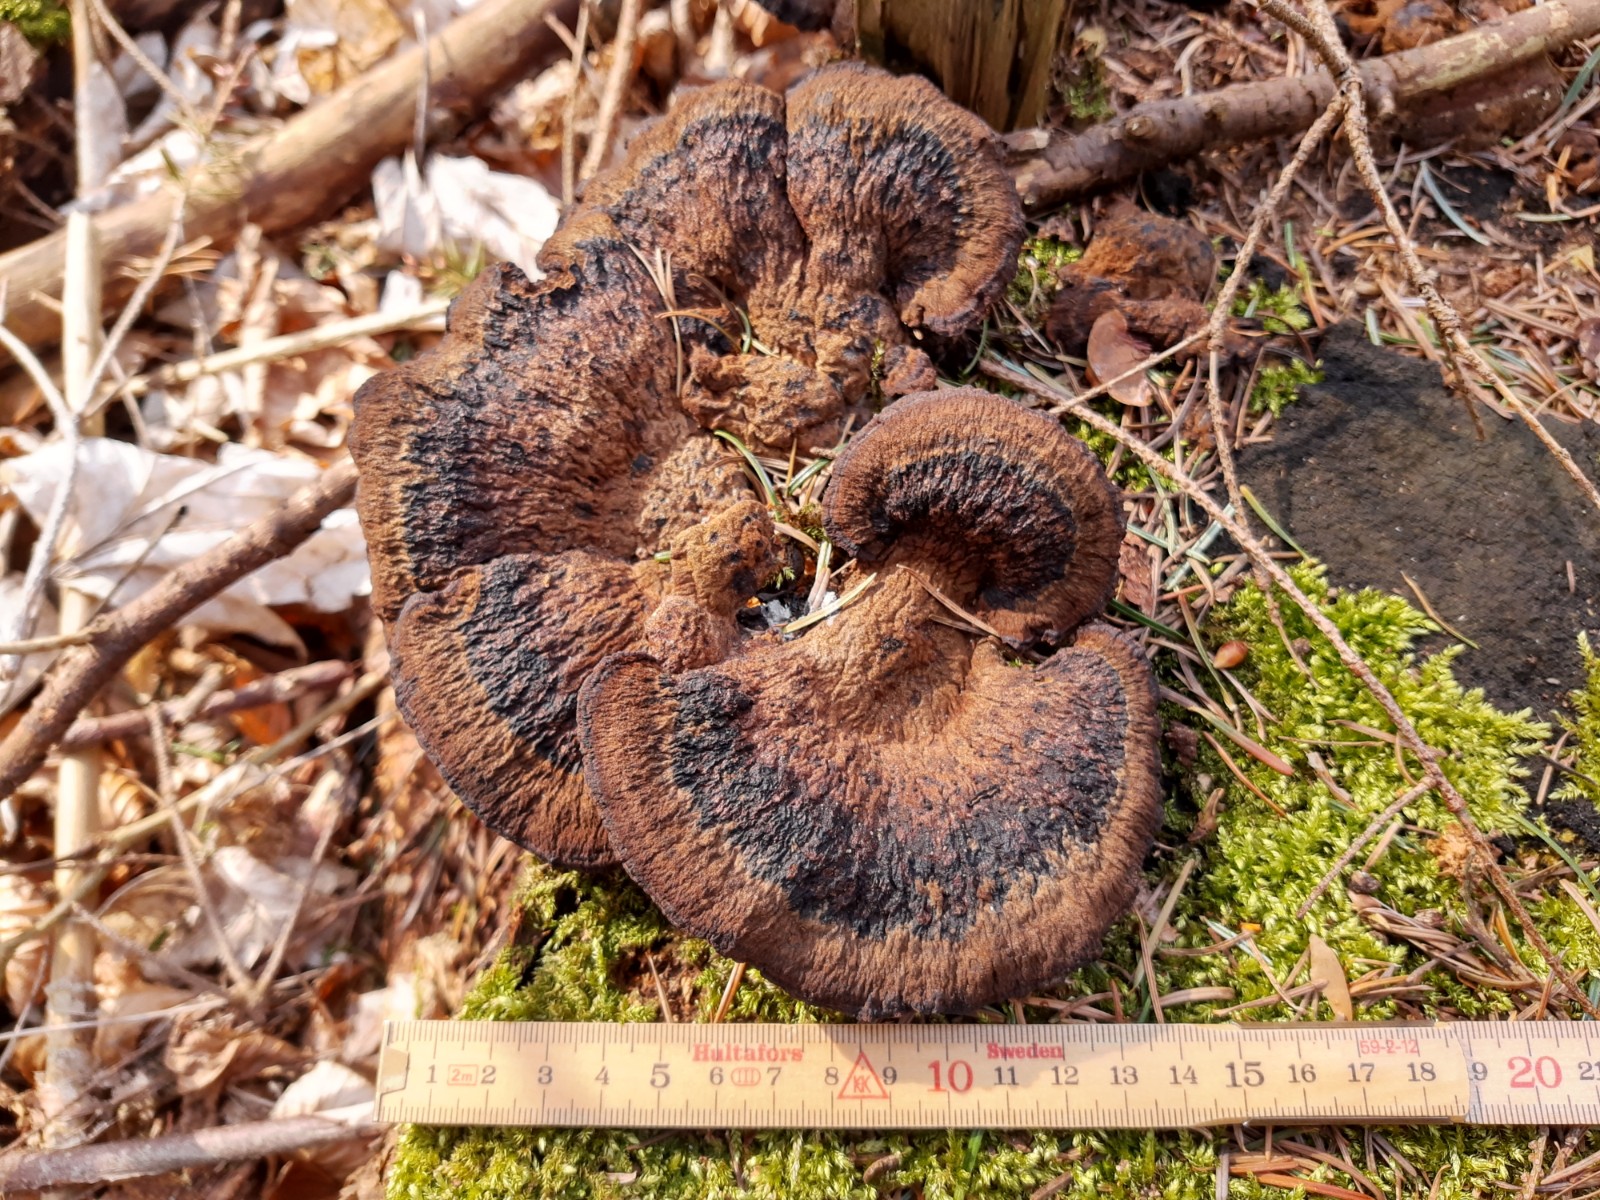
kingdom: Fungi
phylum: Basidiomycota
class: Agaricomycetes
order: Polyporales
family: Laetiporaceae
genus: Phaeolus
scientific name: Phaeolus schweinitzii
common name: brunporesvamp
